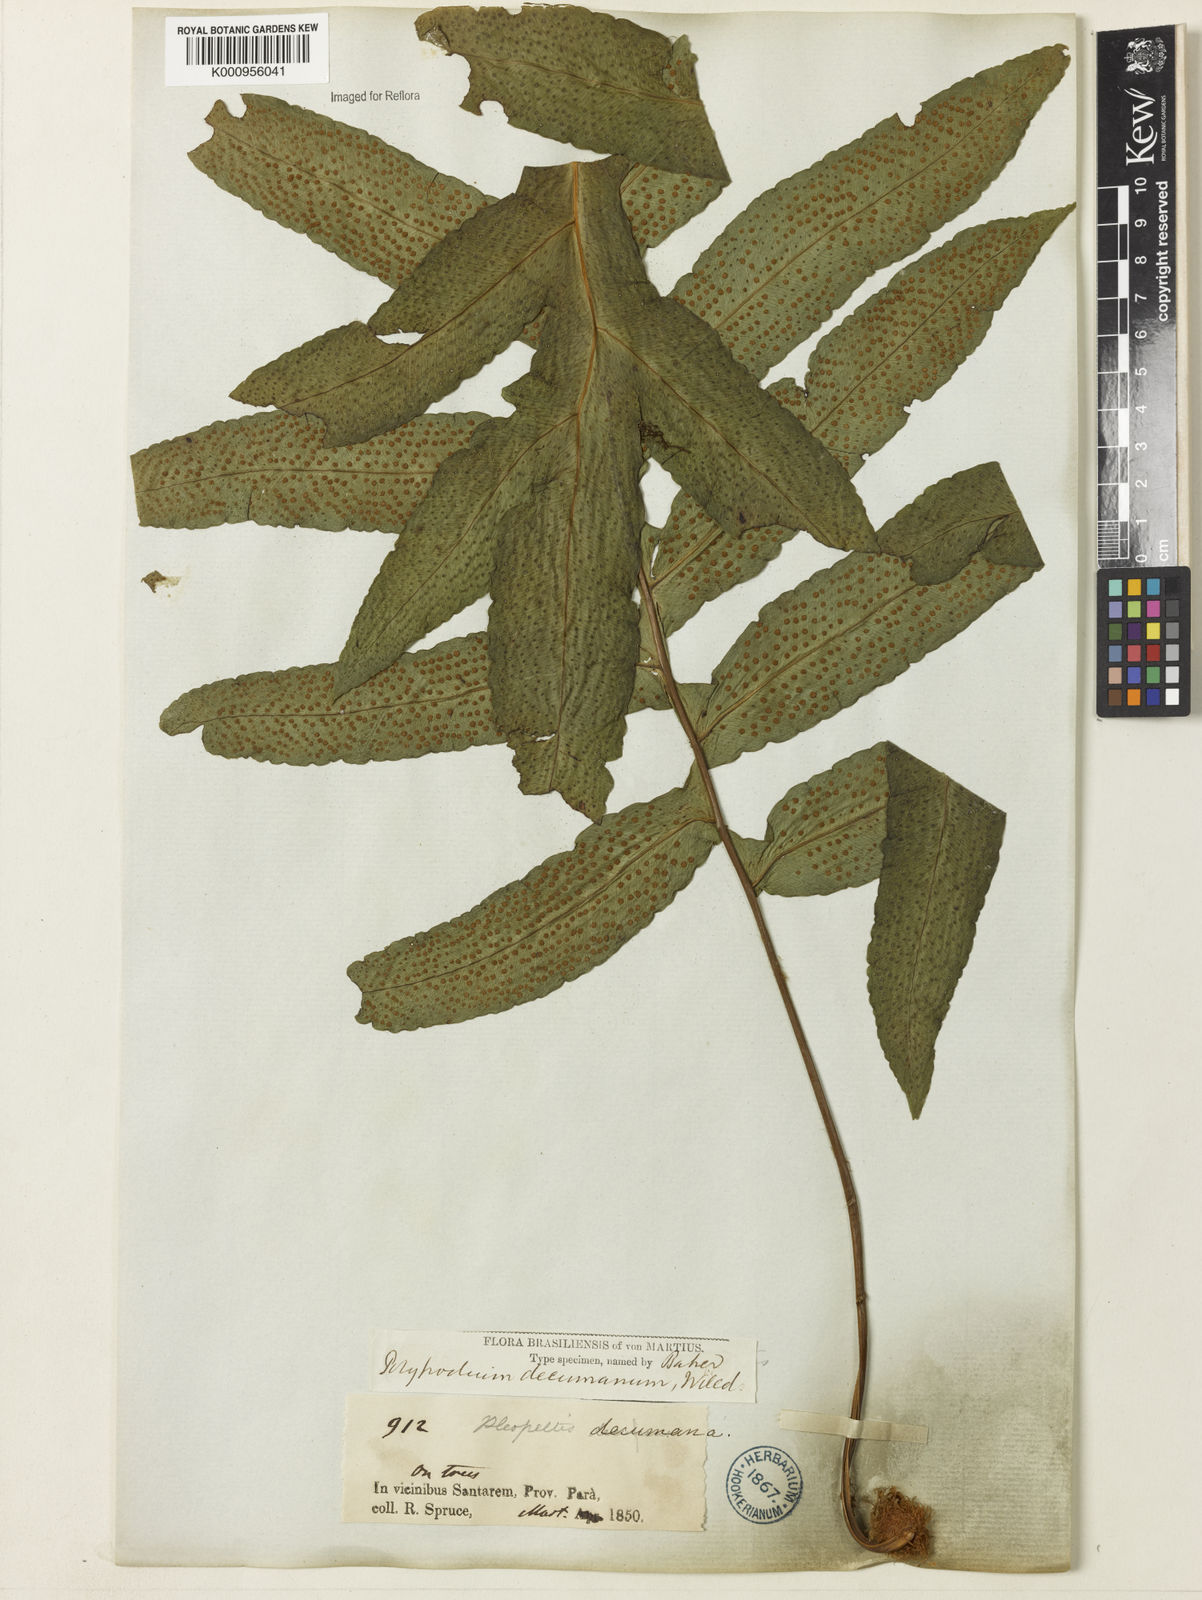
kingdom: Plantae
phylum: Tracheophyta
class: Polypodiopsida
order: Polypodiales
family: Polypodiaceae
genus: Phlebodium
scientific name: Phlebodium decumanum
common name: Golden polypod
